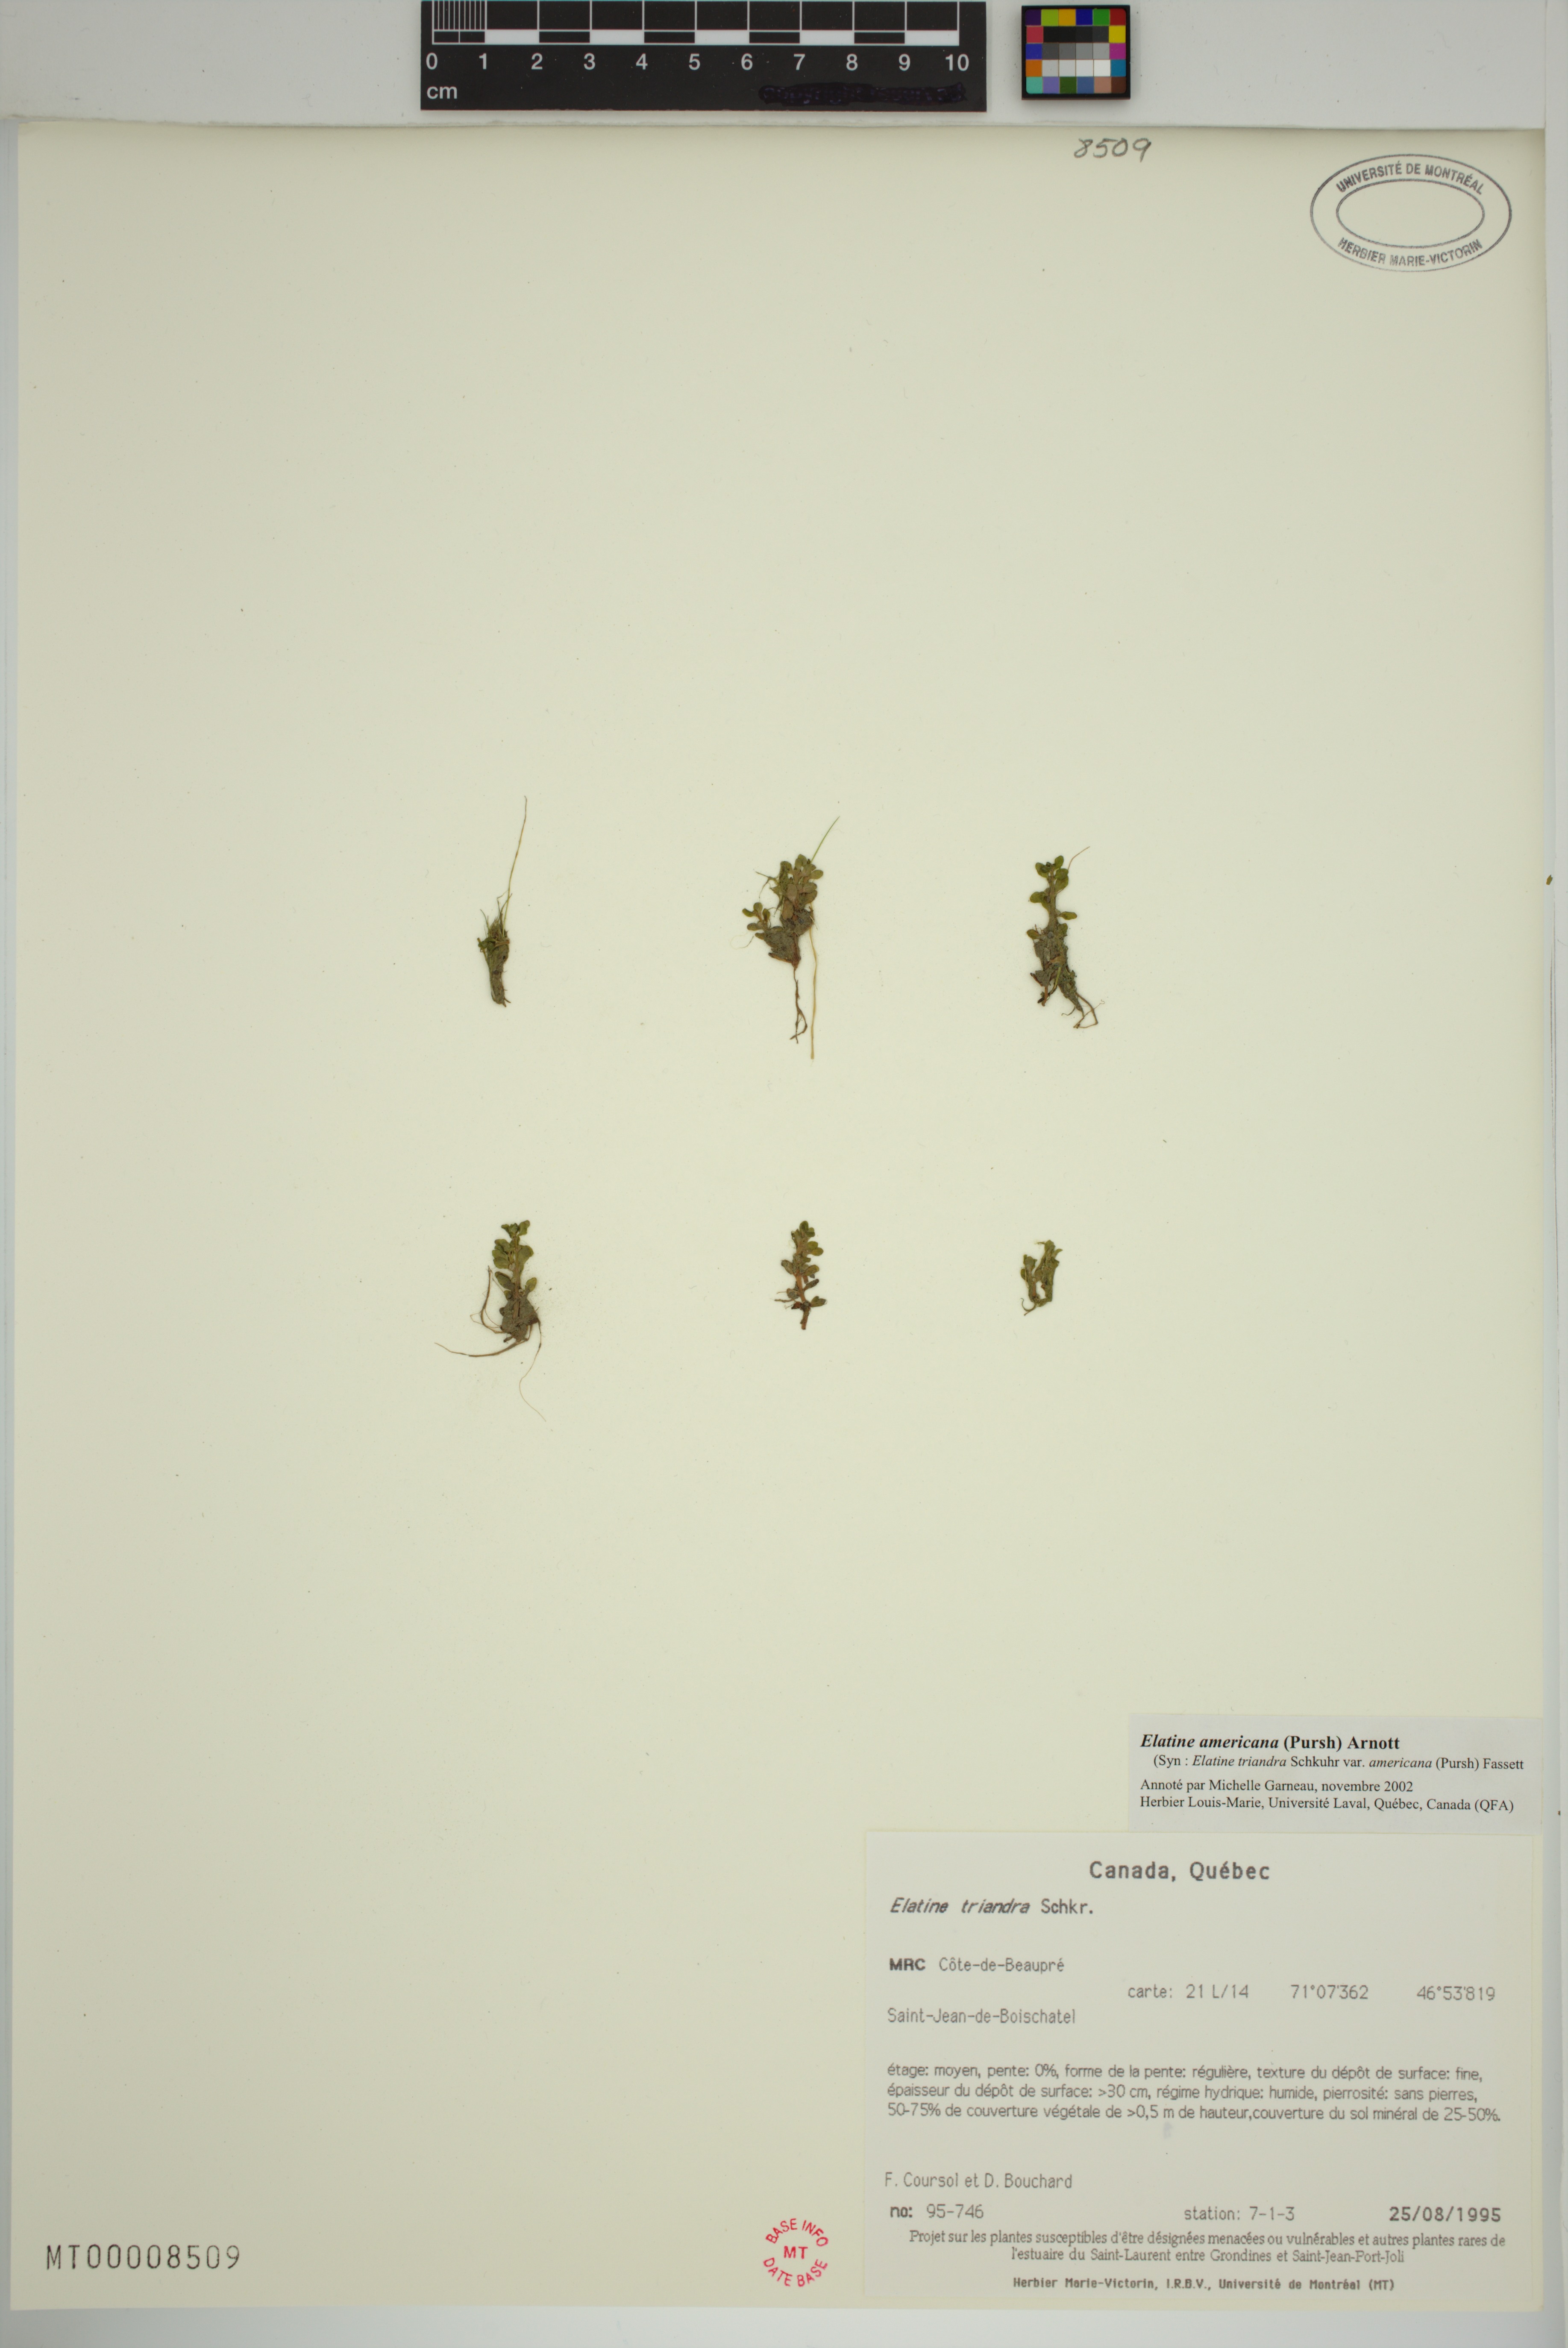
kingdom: Plantae
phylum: Tracheophyta
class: Magnoliopsida
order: Malpighiales
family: Elatinaceae
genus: Elatine
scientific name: Elatine americana
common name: American waterwort
